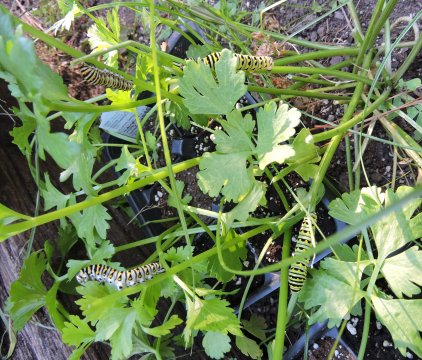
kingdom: Animalia
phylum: Arthropoda
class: Insecta
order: Lepidoptera
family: Papilionidae
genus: Papilio
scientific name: Papilio polyxenes
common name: Black Swallowtail
